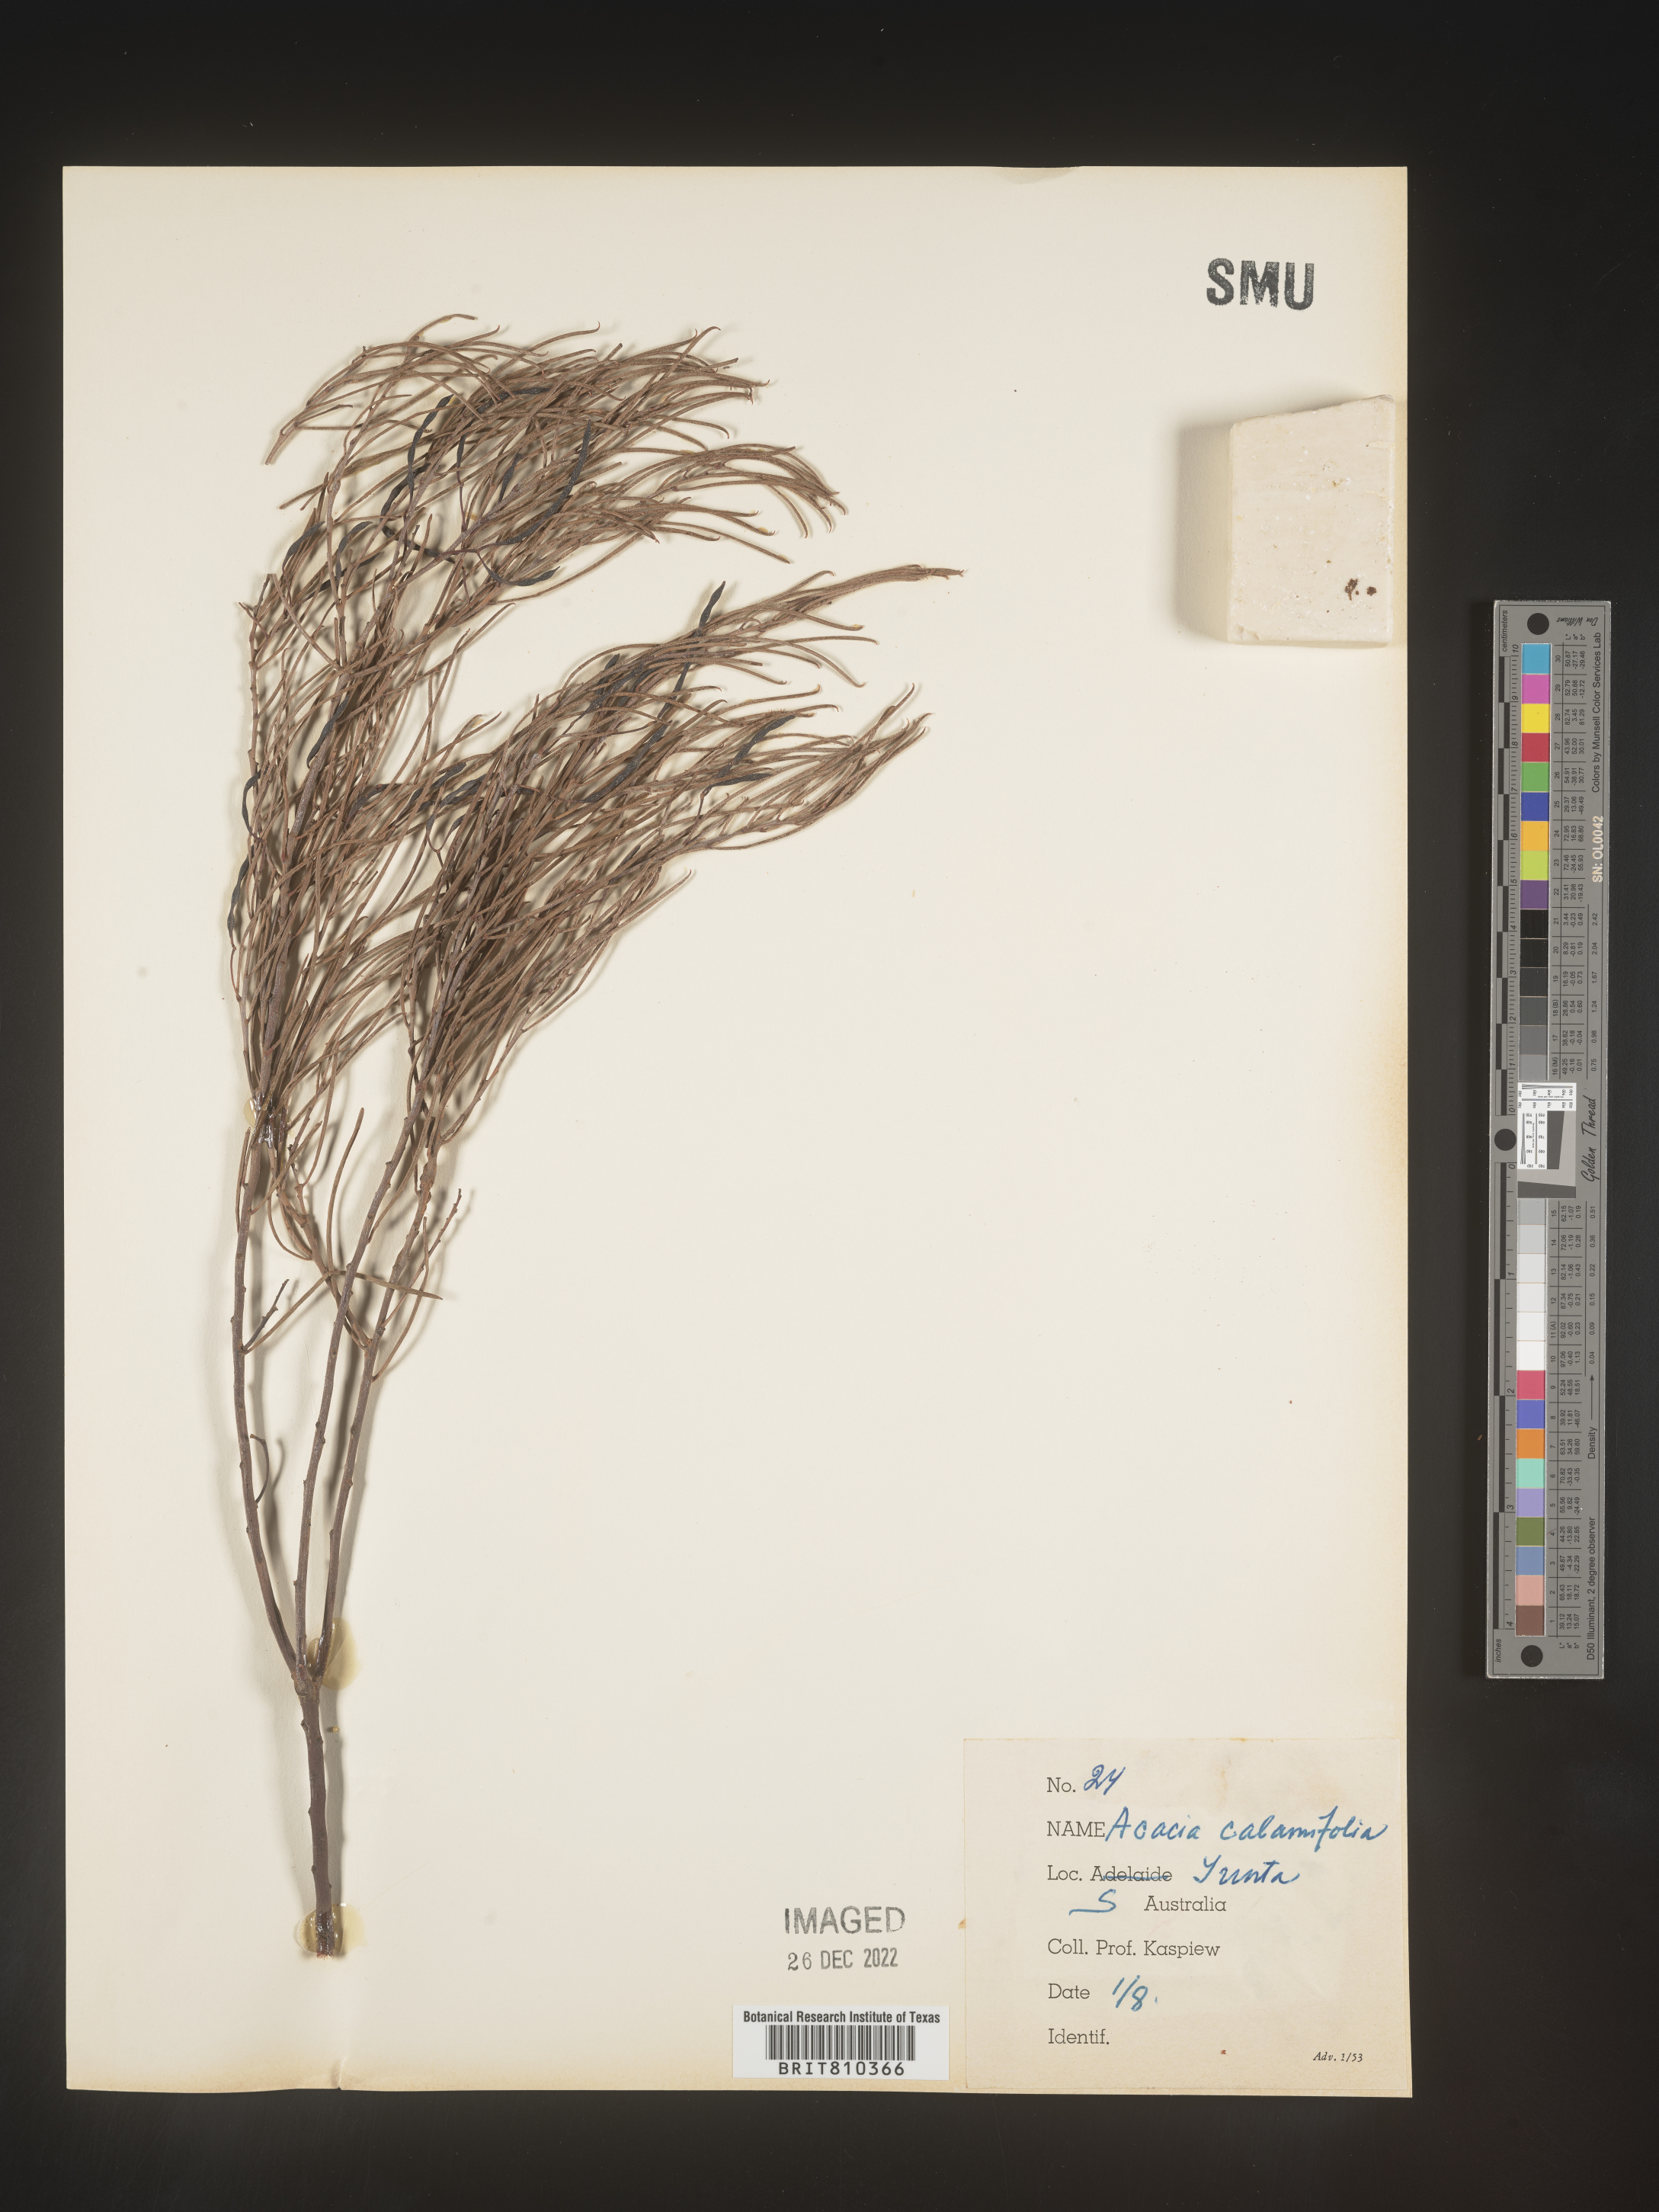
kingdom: Plantae
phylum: Tracheophyta
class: Magnoliopsida
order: Fabales
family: Fabaceae
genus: Acacia
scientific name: Acacia
